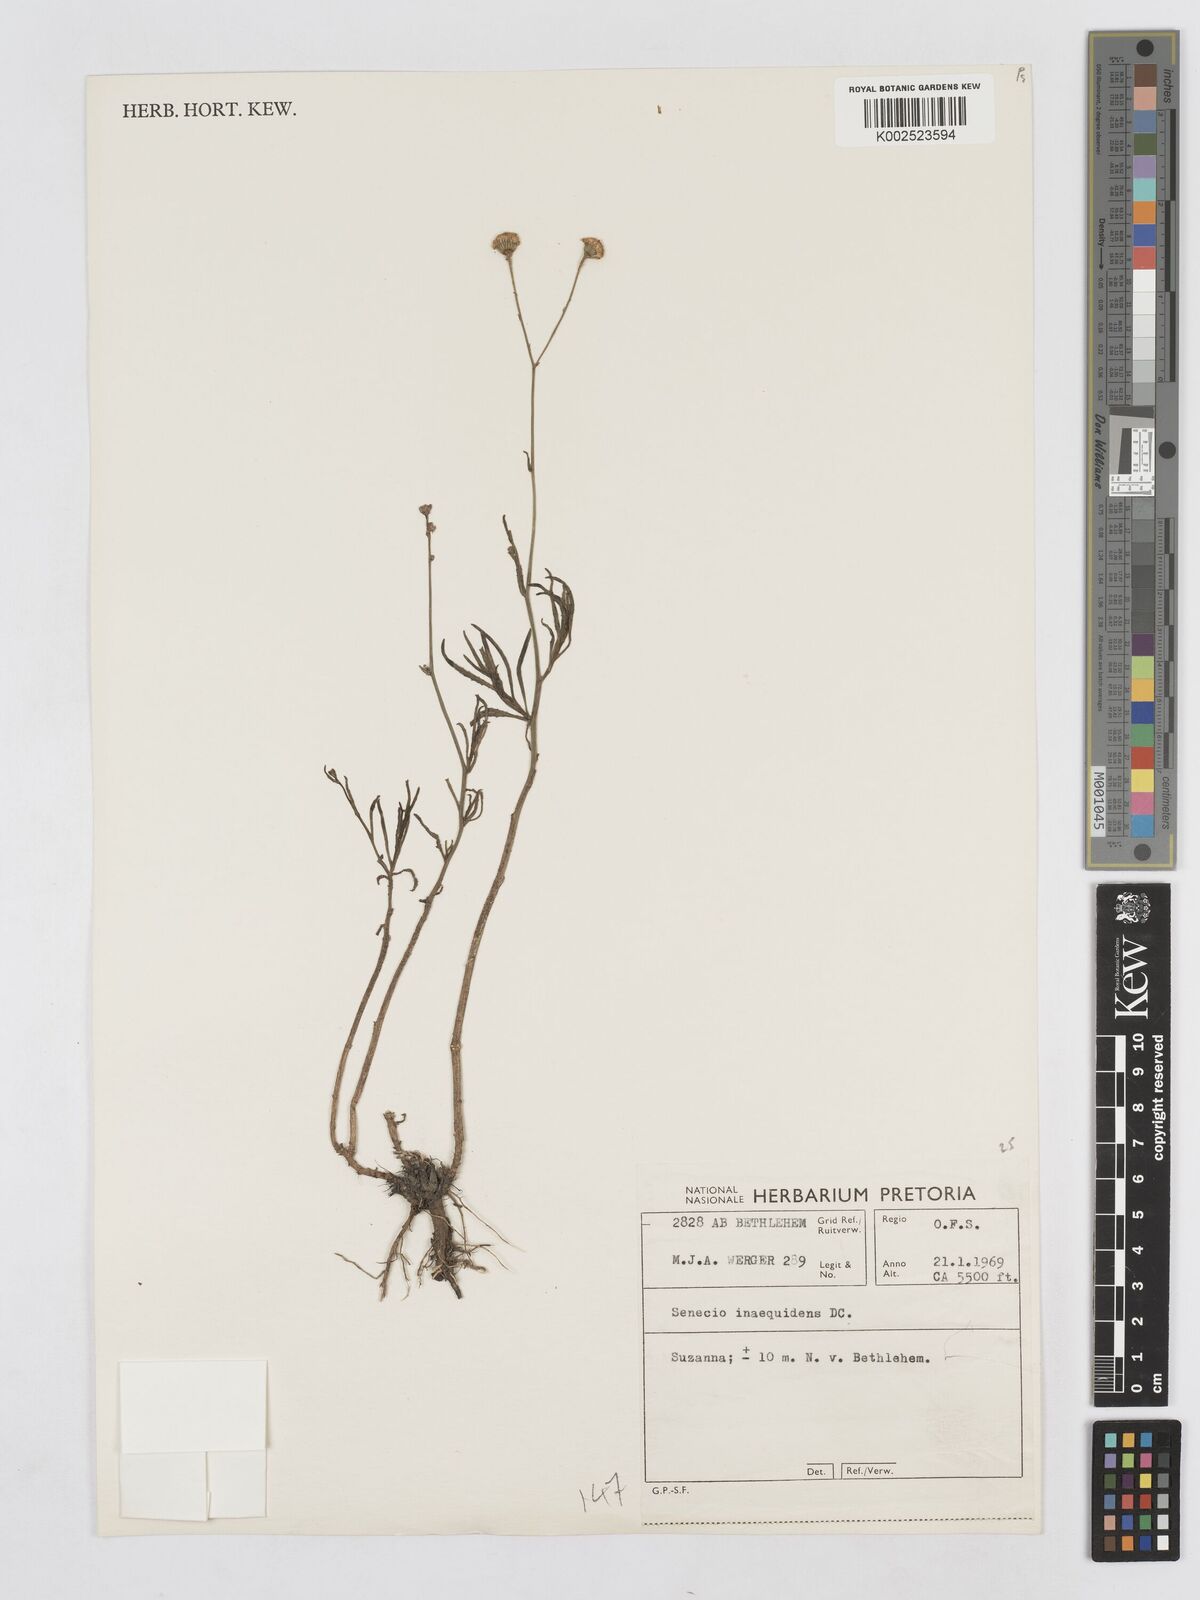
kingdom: Plantae
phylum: Tracheophyta
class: Magnoliopsida
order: Asterales
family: Asteraceae
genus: Senecio
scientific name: Senecio inaequidens
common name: Narrow-leaved ragwort
